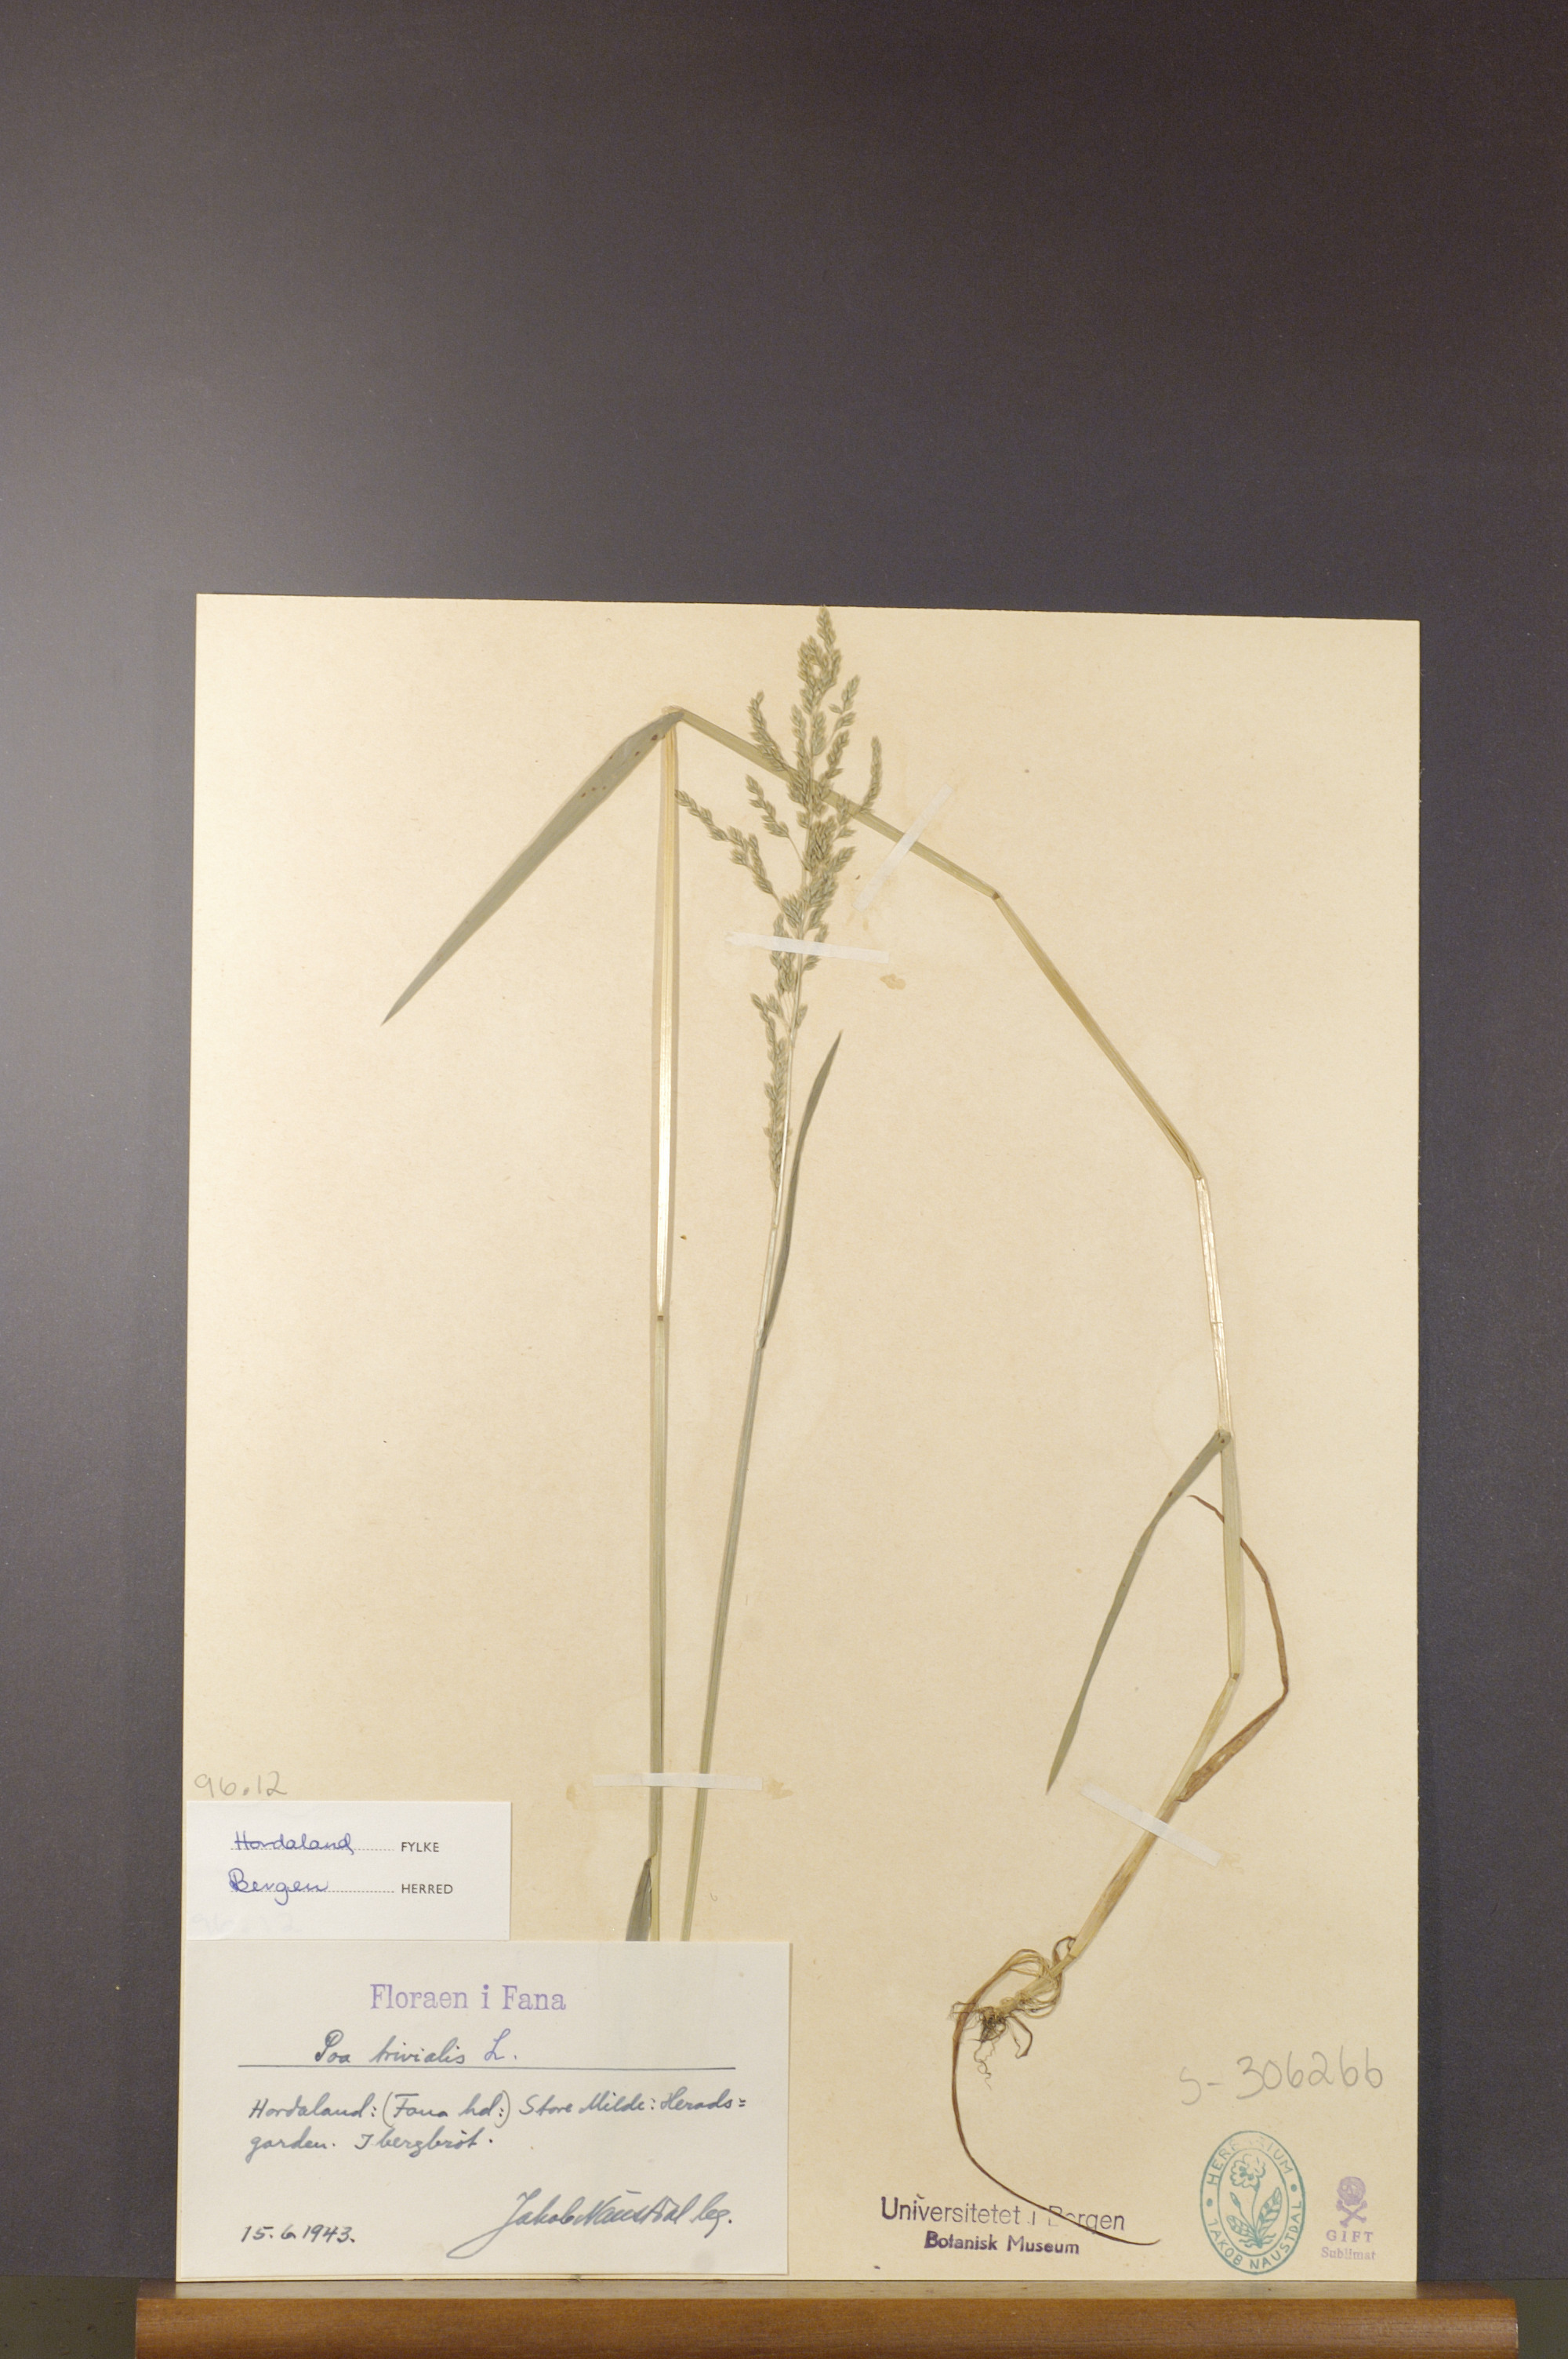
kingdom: Plantae
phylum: Tracheophyta
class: Liliopsida
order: Poales
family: Poaceae
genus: Poa
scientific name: Poa trivialis
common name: Rough bluegrass
